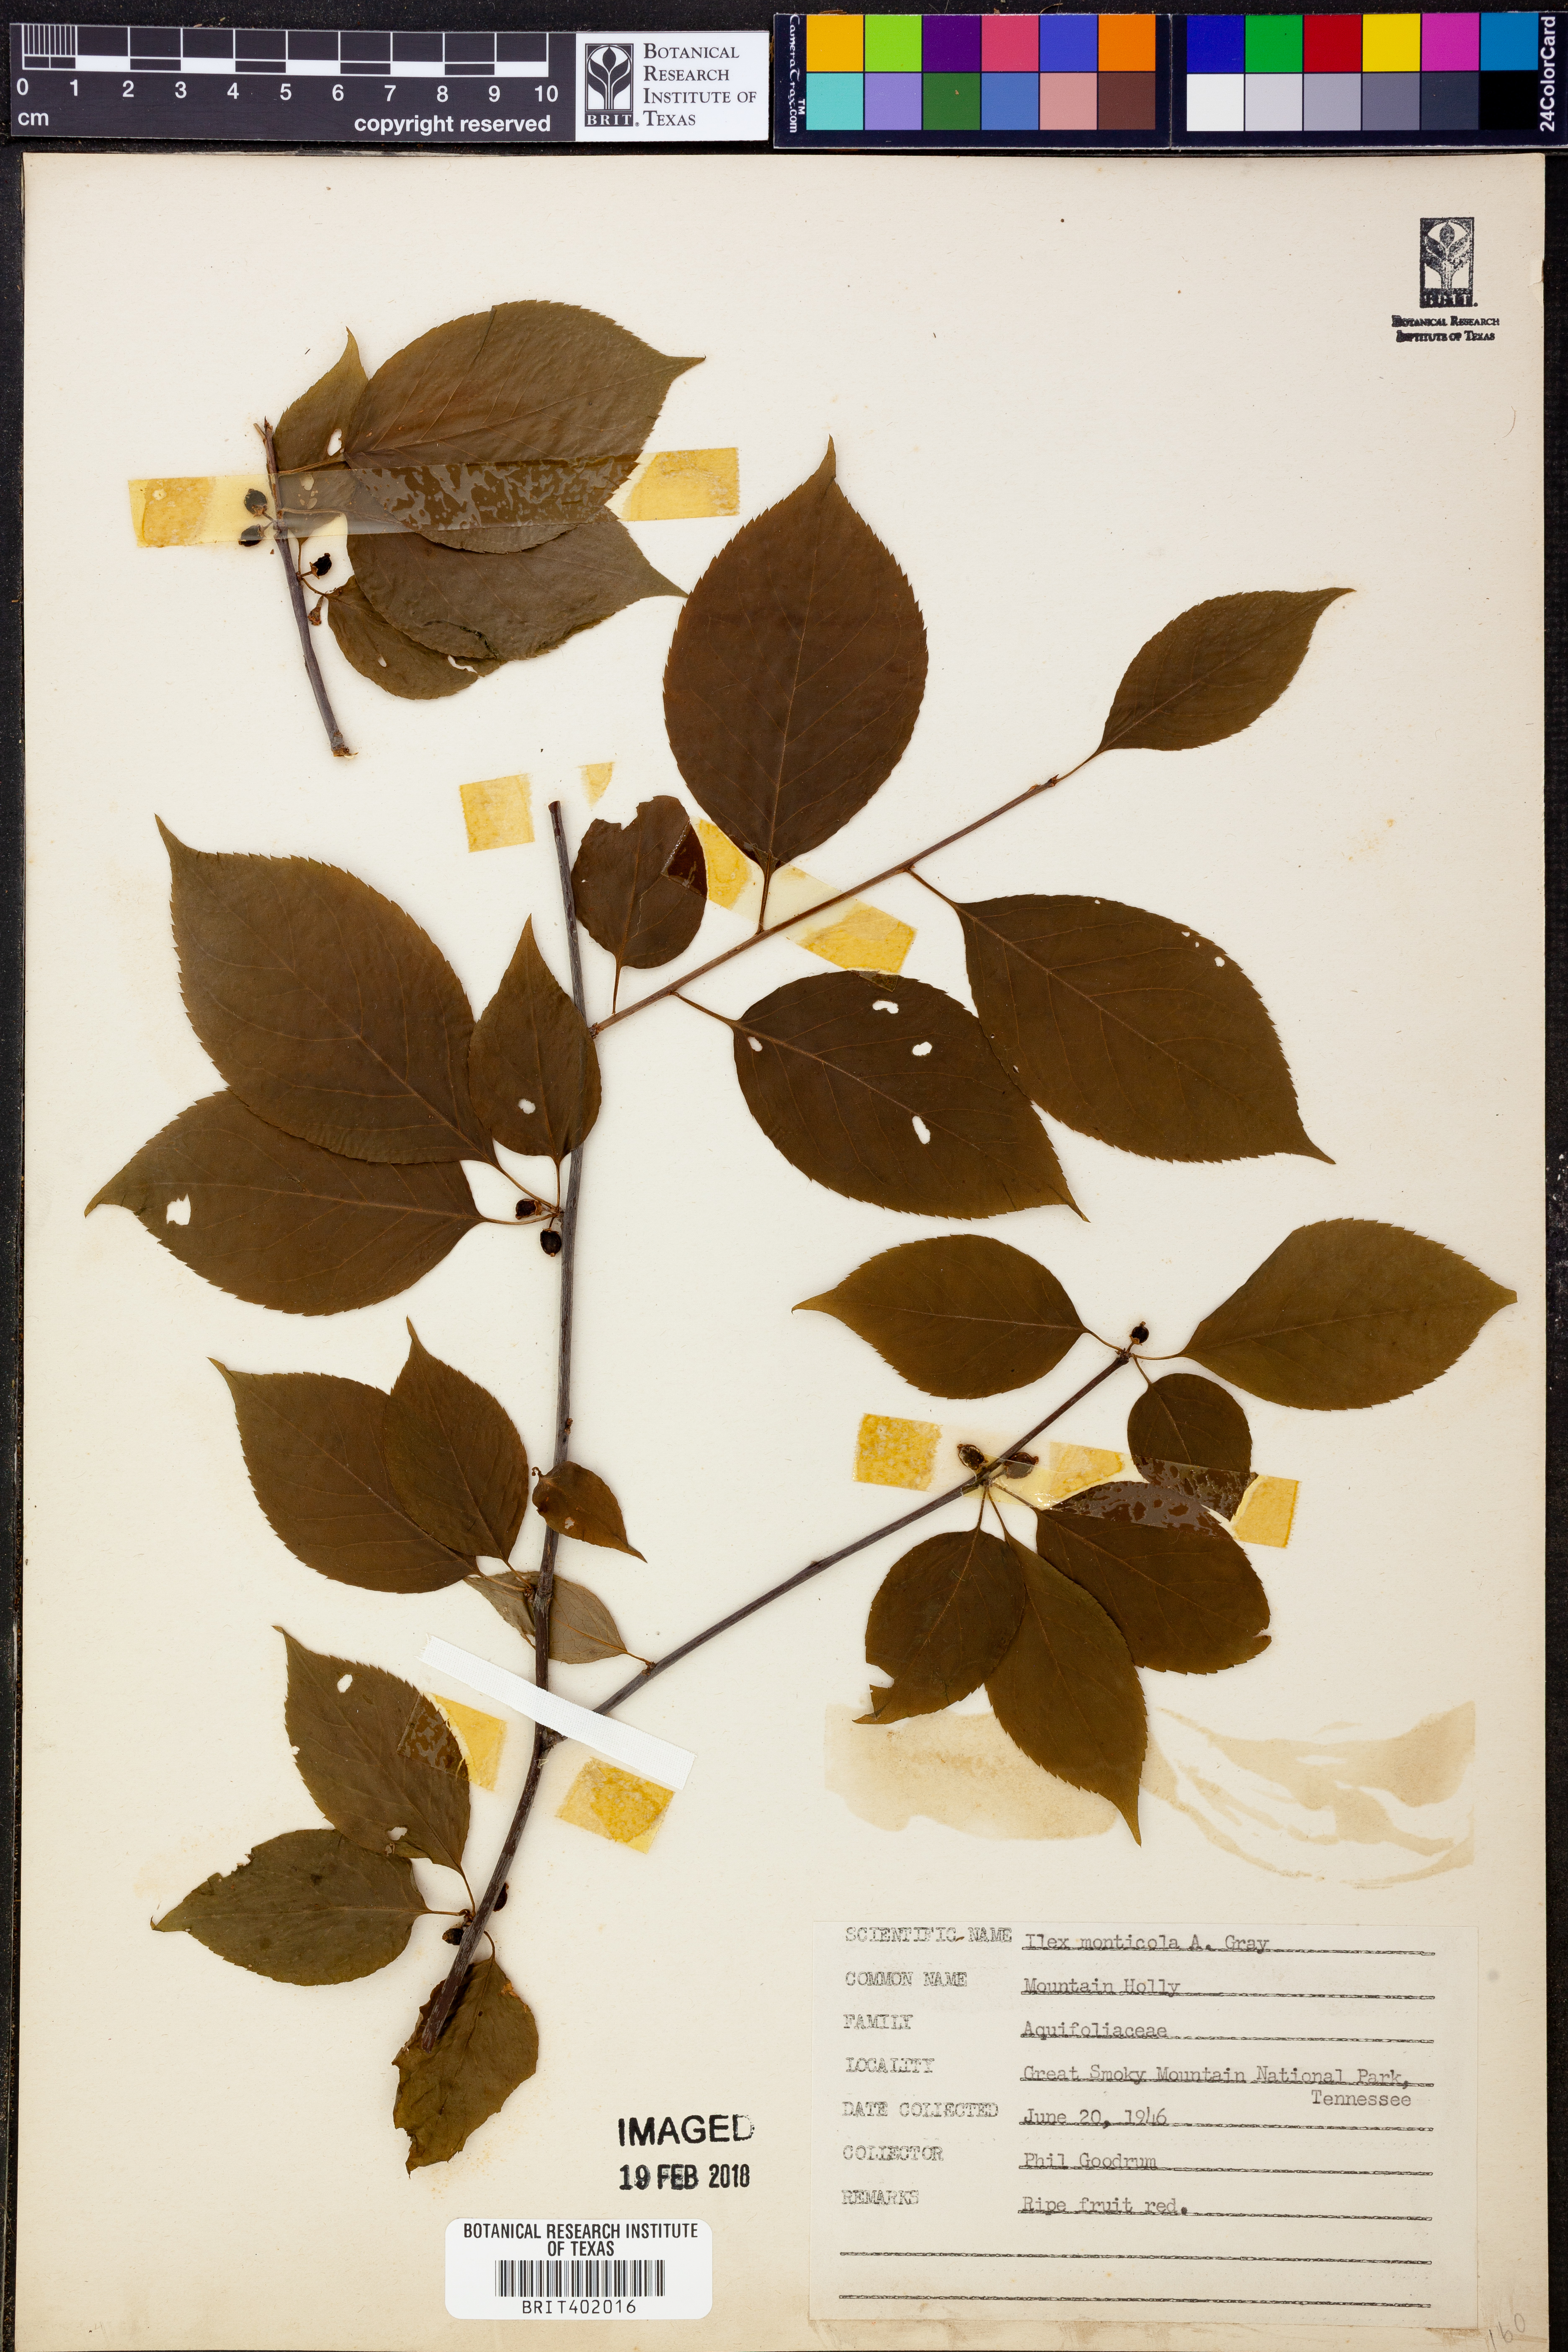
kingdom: Plantae
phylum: Tracheophyta
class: Magnoliopsida
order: Aquifoliales
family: Aquifoliaceae
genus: Ilex
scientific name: Ilex montana
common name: Mountain winterberry
